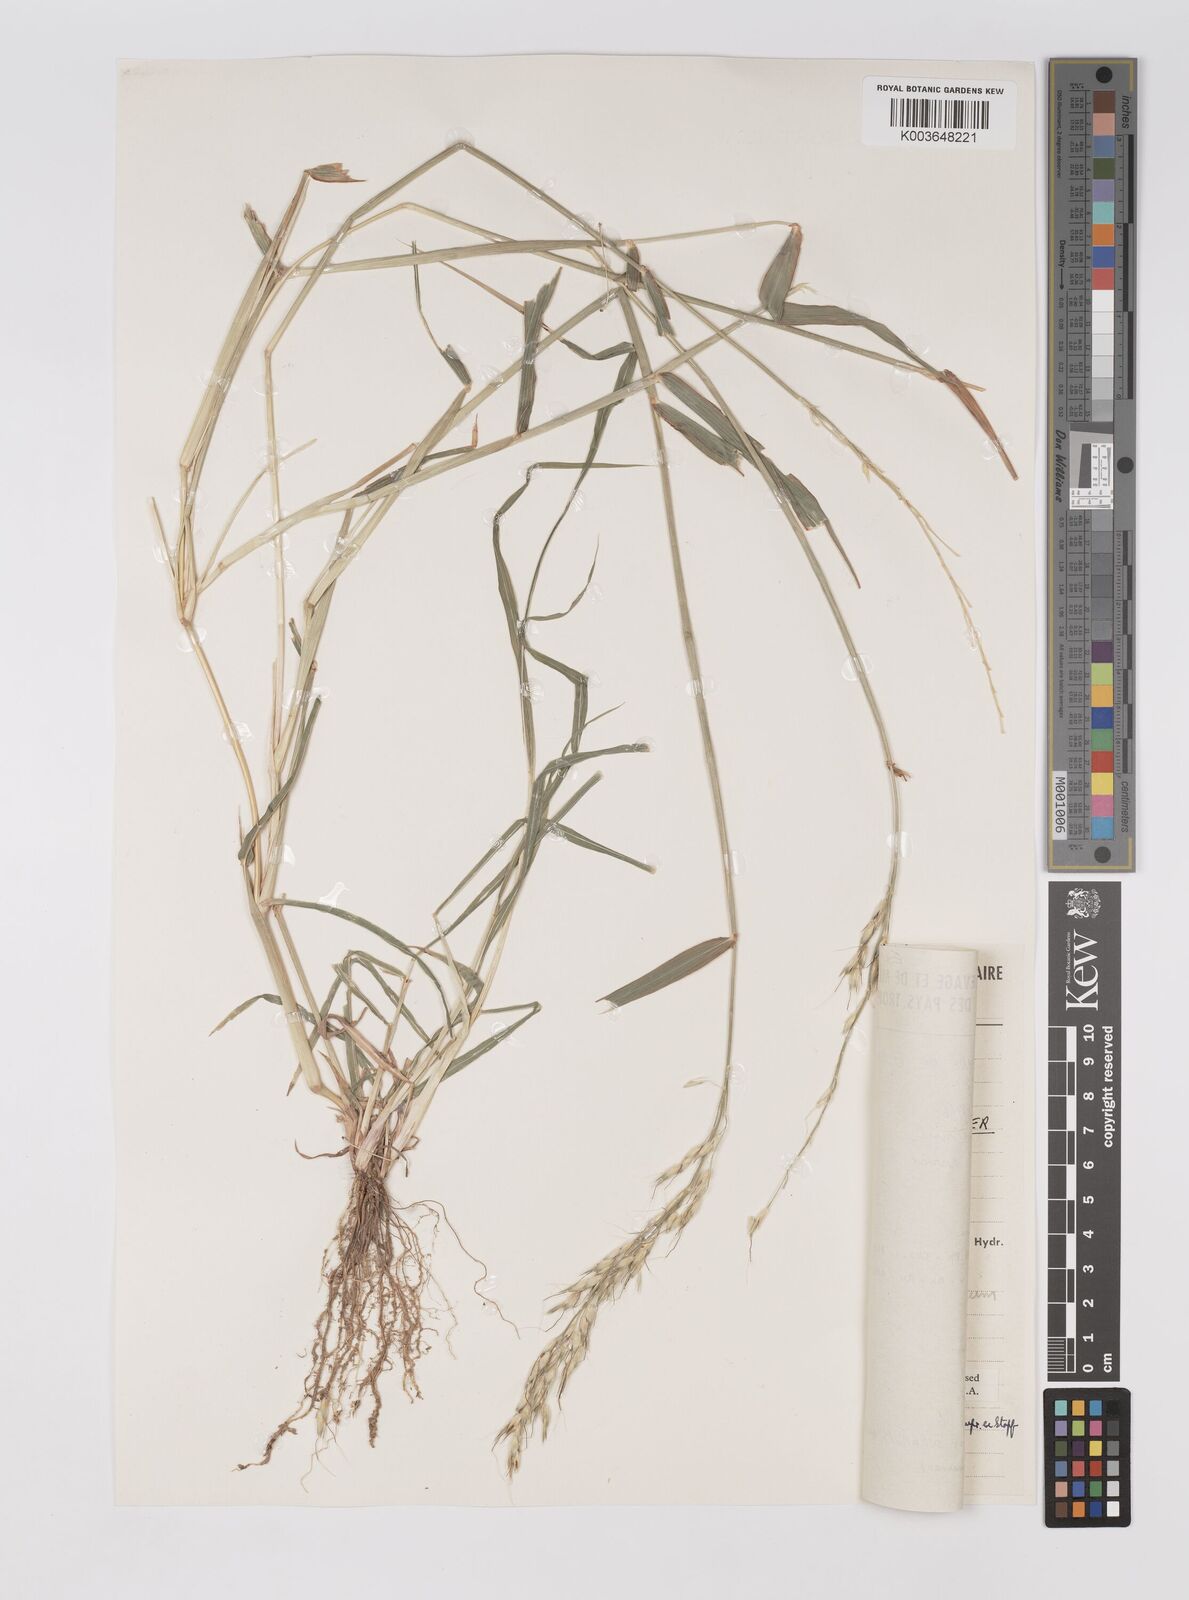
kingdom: Plantae
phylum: Tracheophyta
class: Liliopsida
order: Poales
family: Poaceae
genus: Sorghum
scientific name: Sorghum arundinaceum
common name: Sorghum
